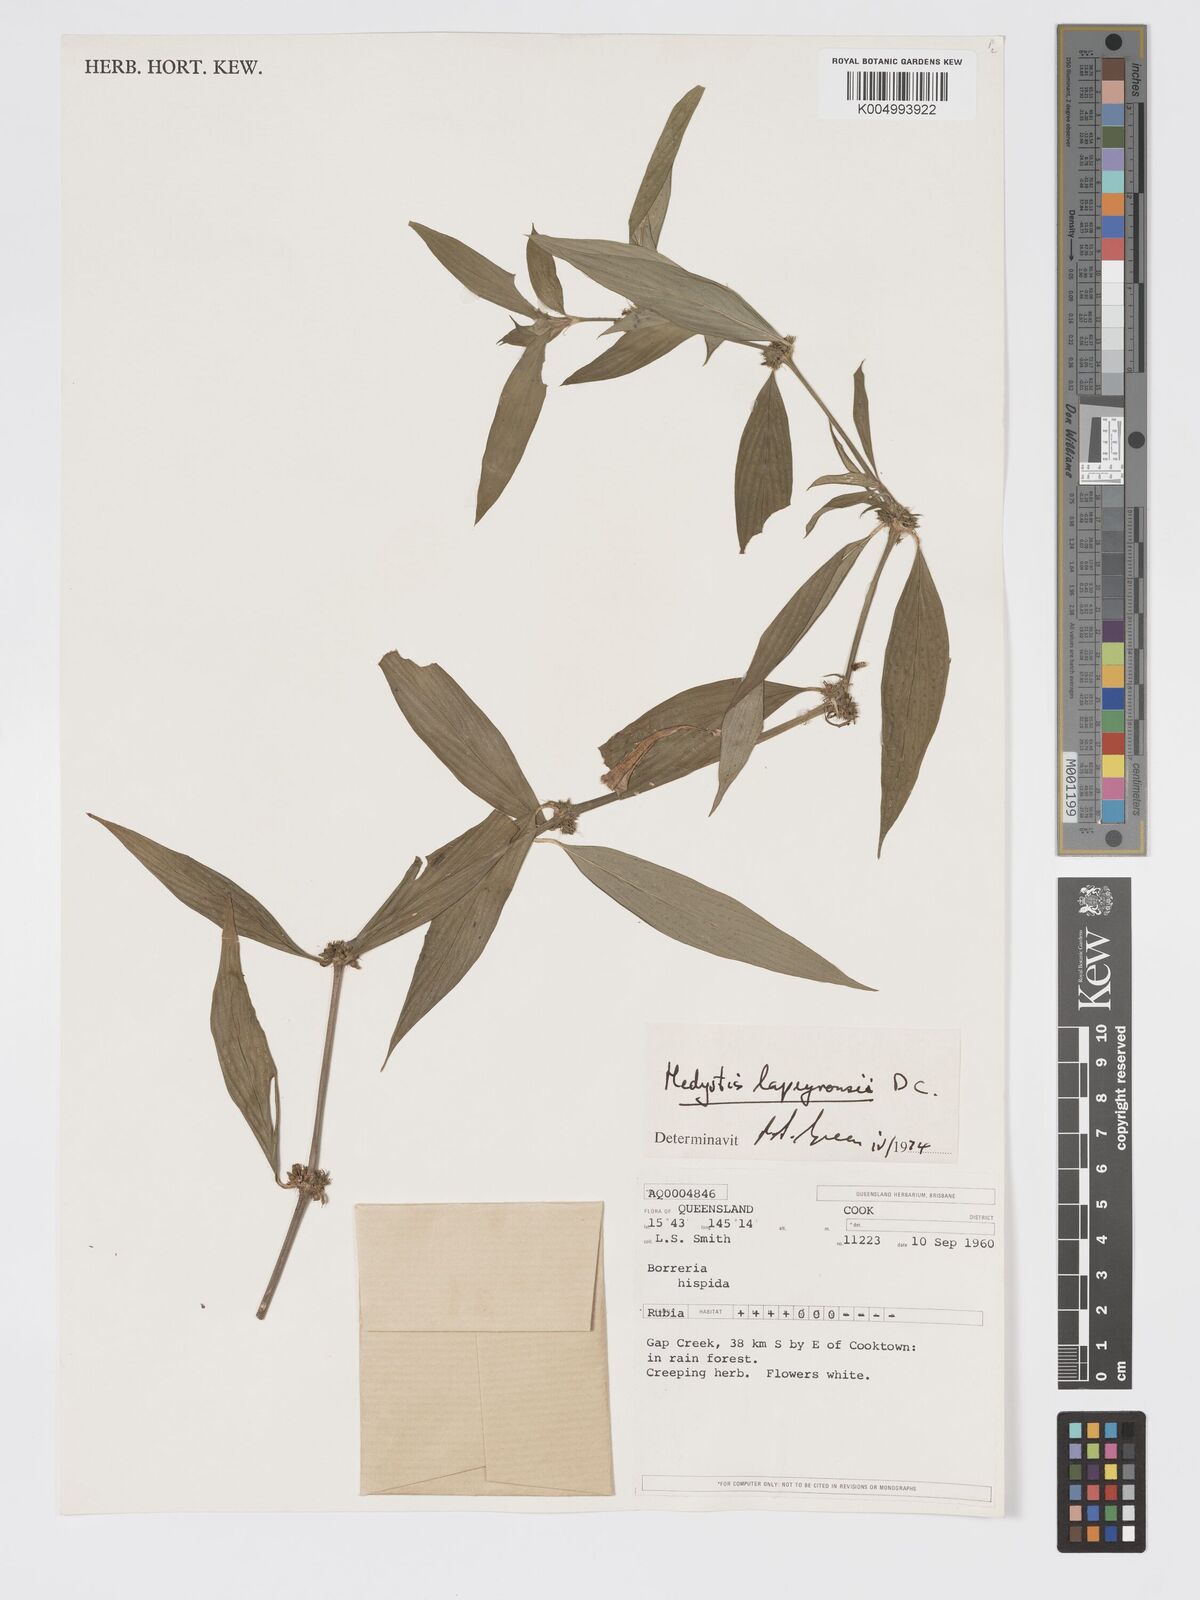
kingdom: Plantae
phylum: Tracheophyta
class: Magnoliopsida
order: Gentianales
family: Rubiaceae
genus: Exallage
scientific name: Exallage lapeyrousei
